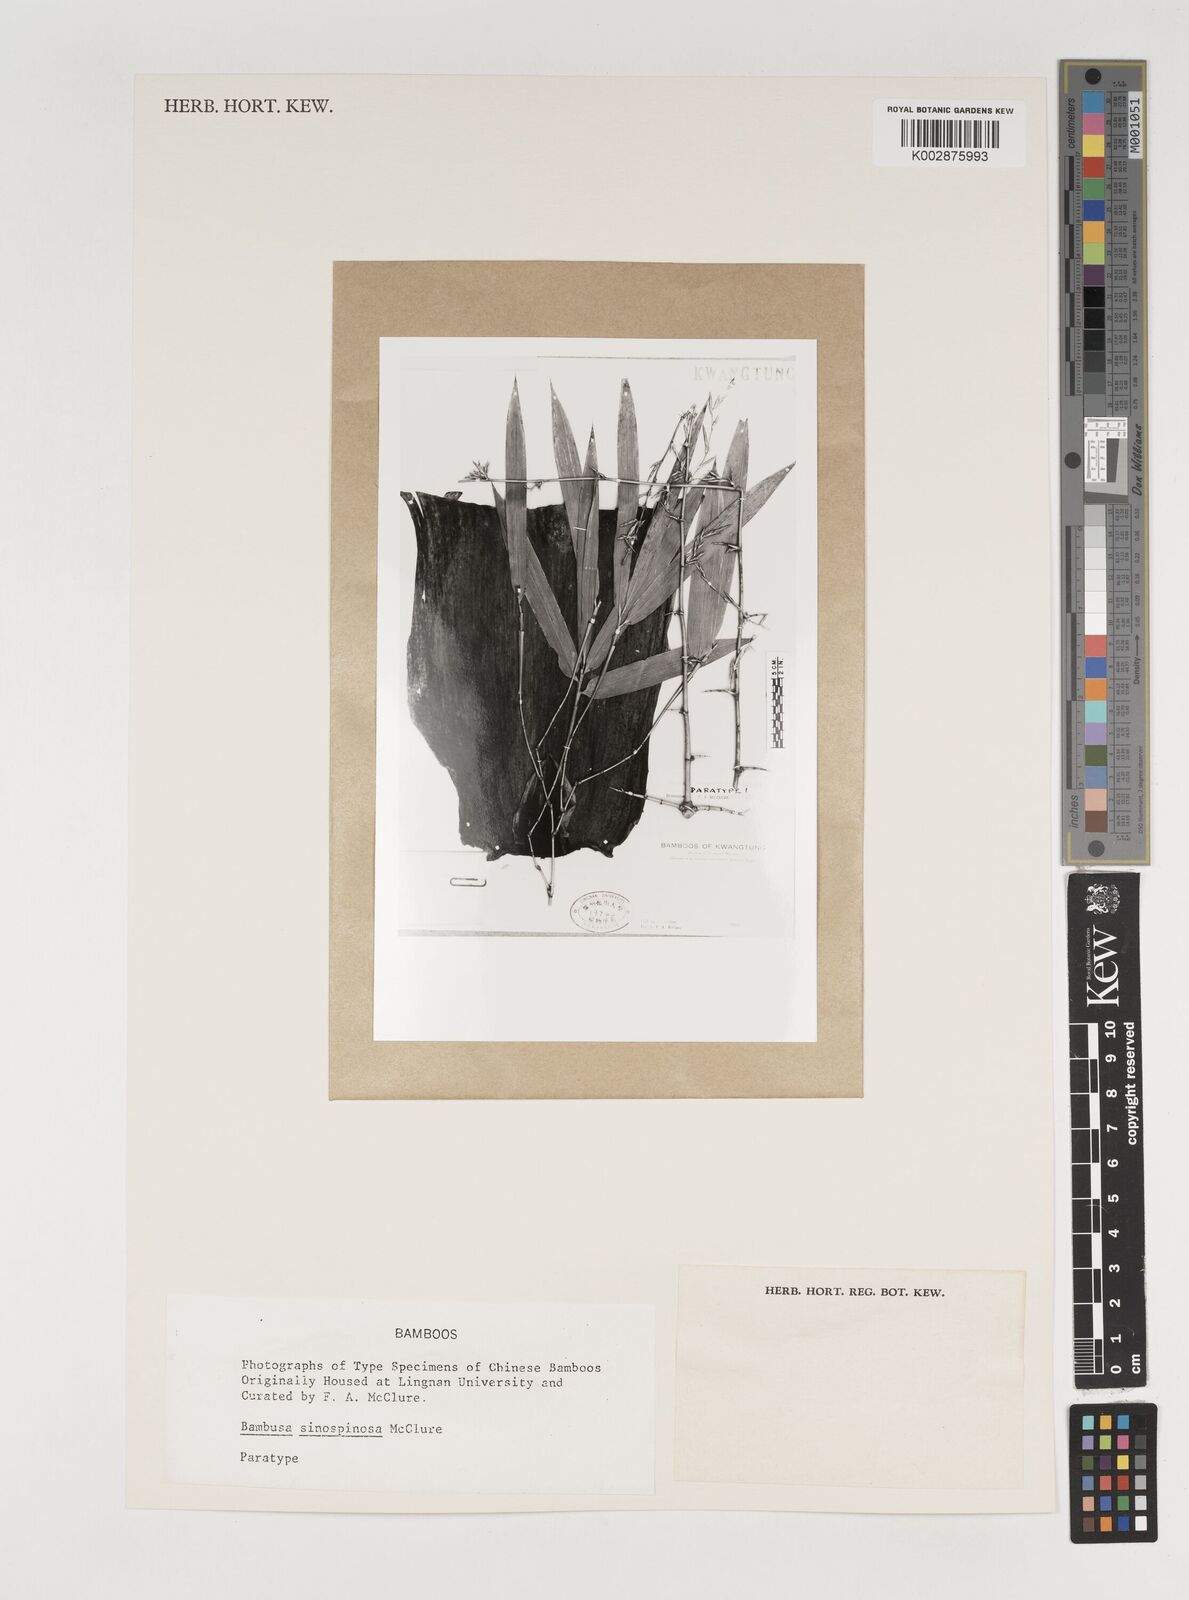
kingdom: Plantae
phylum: Tracheophyta
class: Liliopsida
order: Poales
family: Poaceae
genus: Bambusa
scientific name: Bambusa sinospinosa
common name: Spiny bamboo
